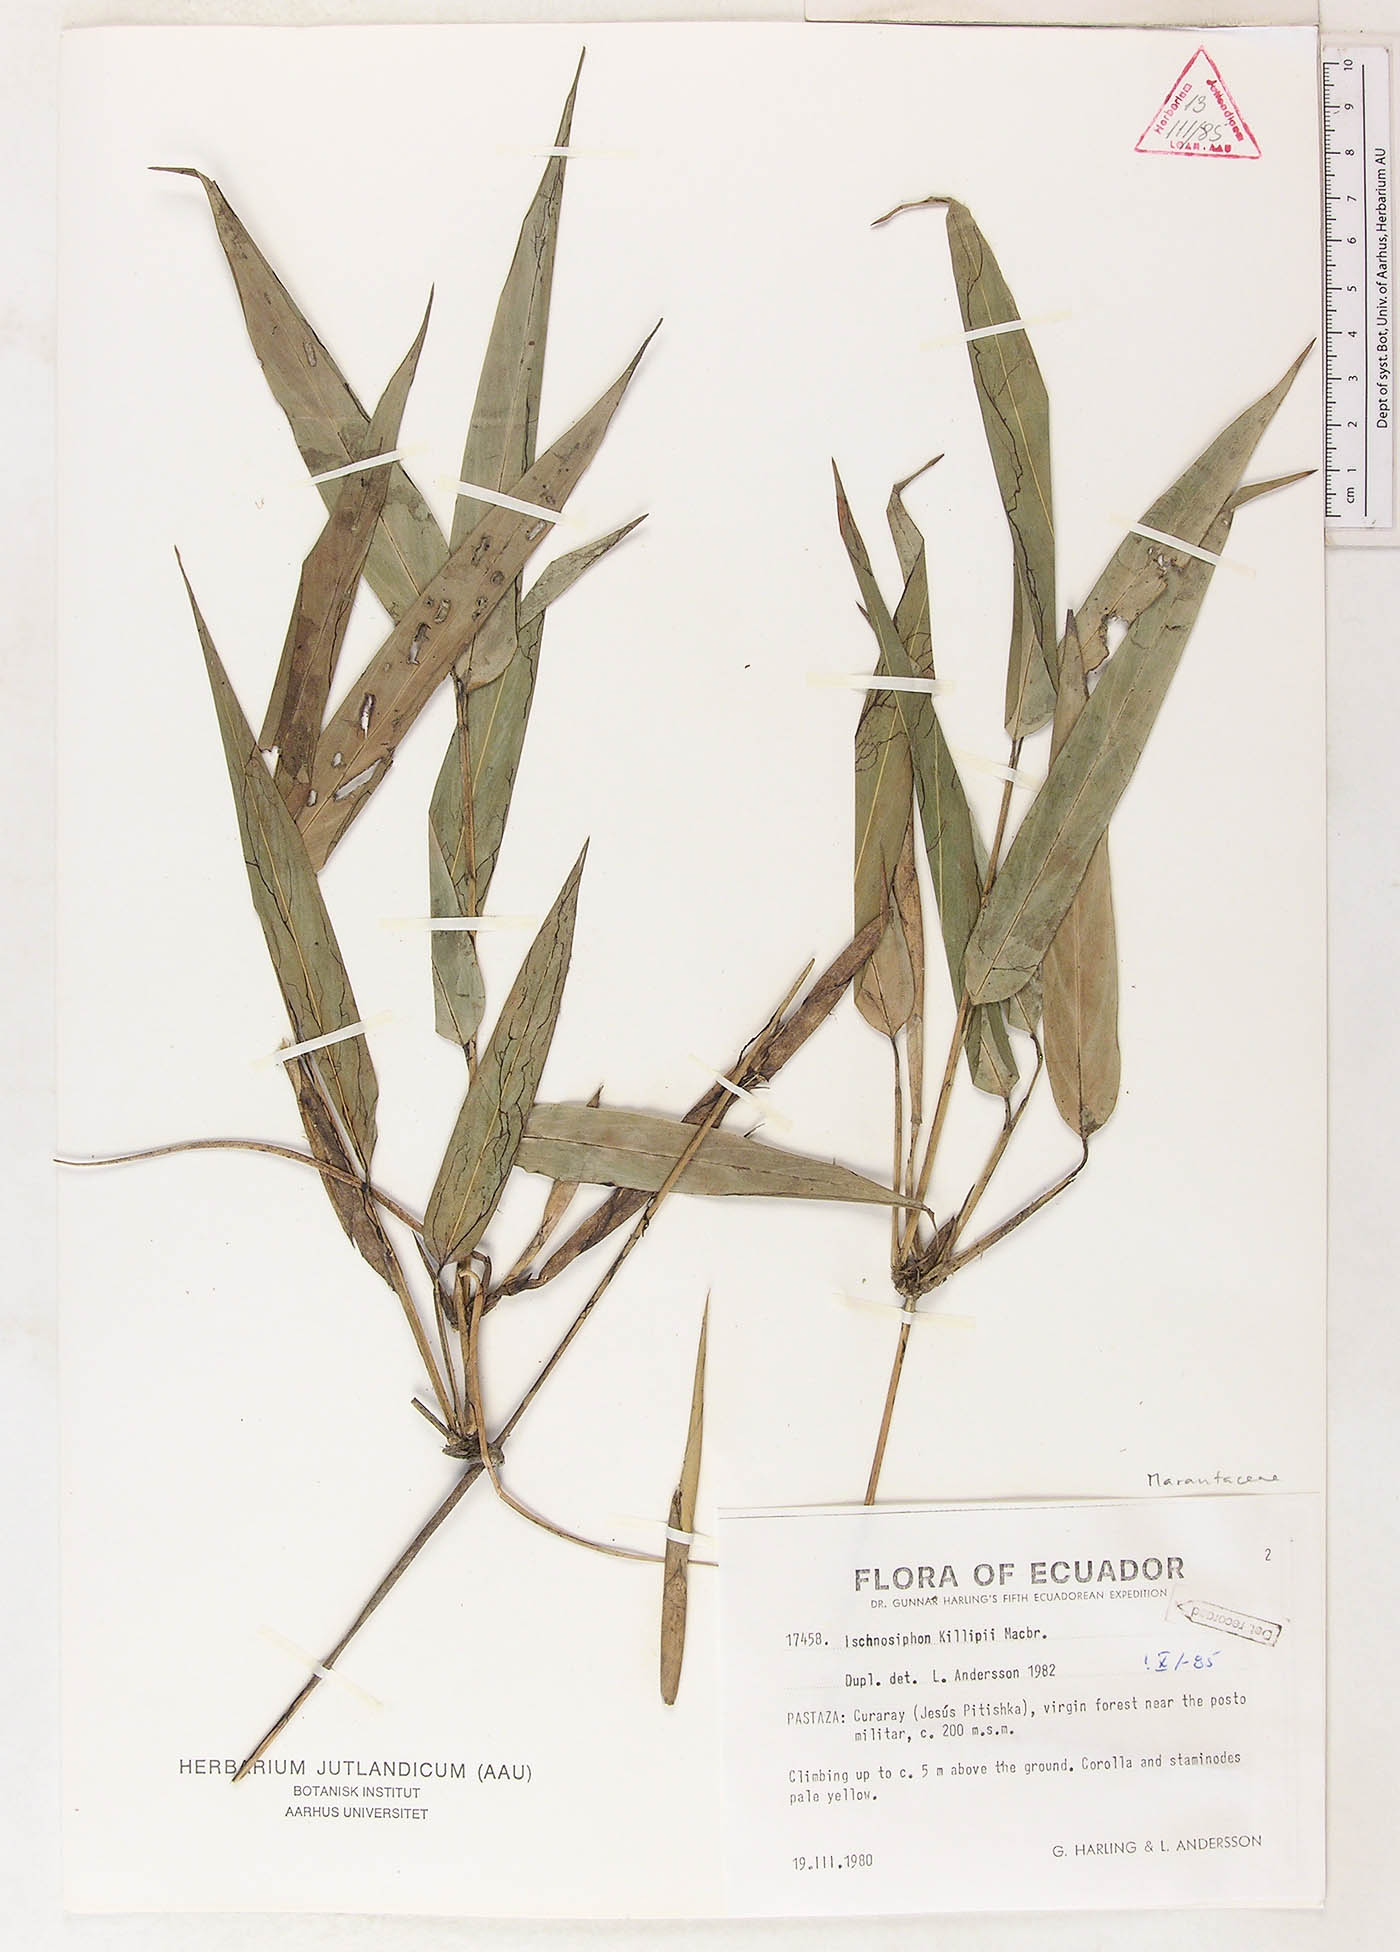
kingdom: Plantae
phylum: Tracheophyta
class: Liliopsida
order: Zingiberales
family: Marantaceae
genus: Ischnosiphon
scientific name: Ischnosiphon killipii
